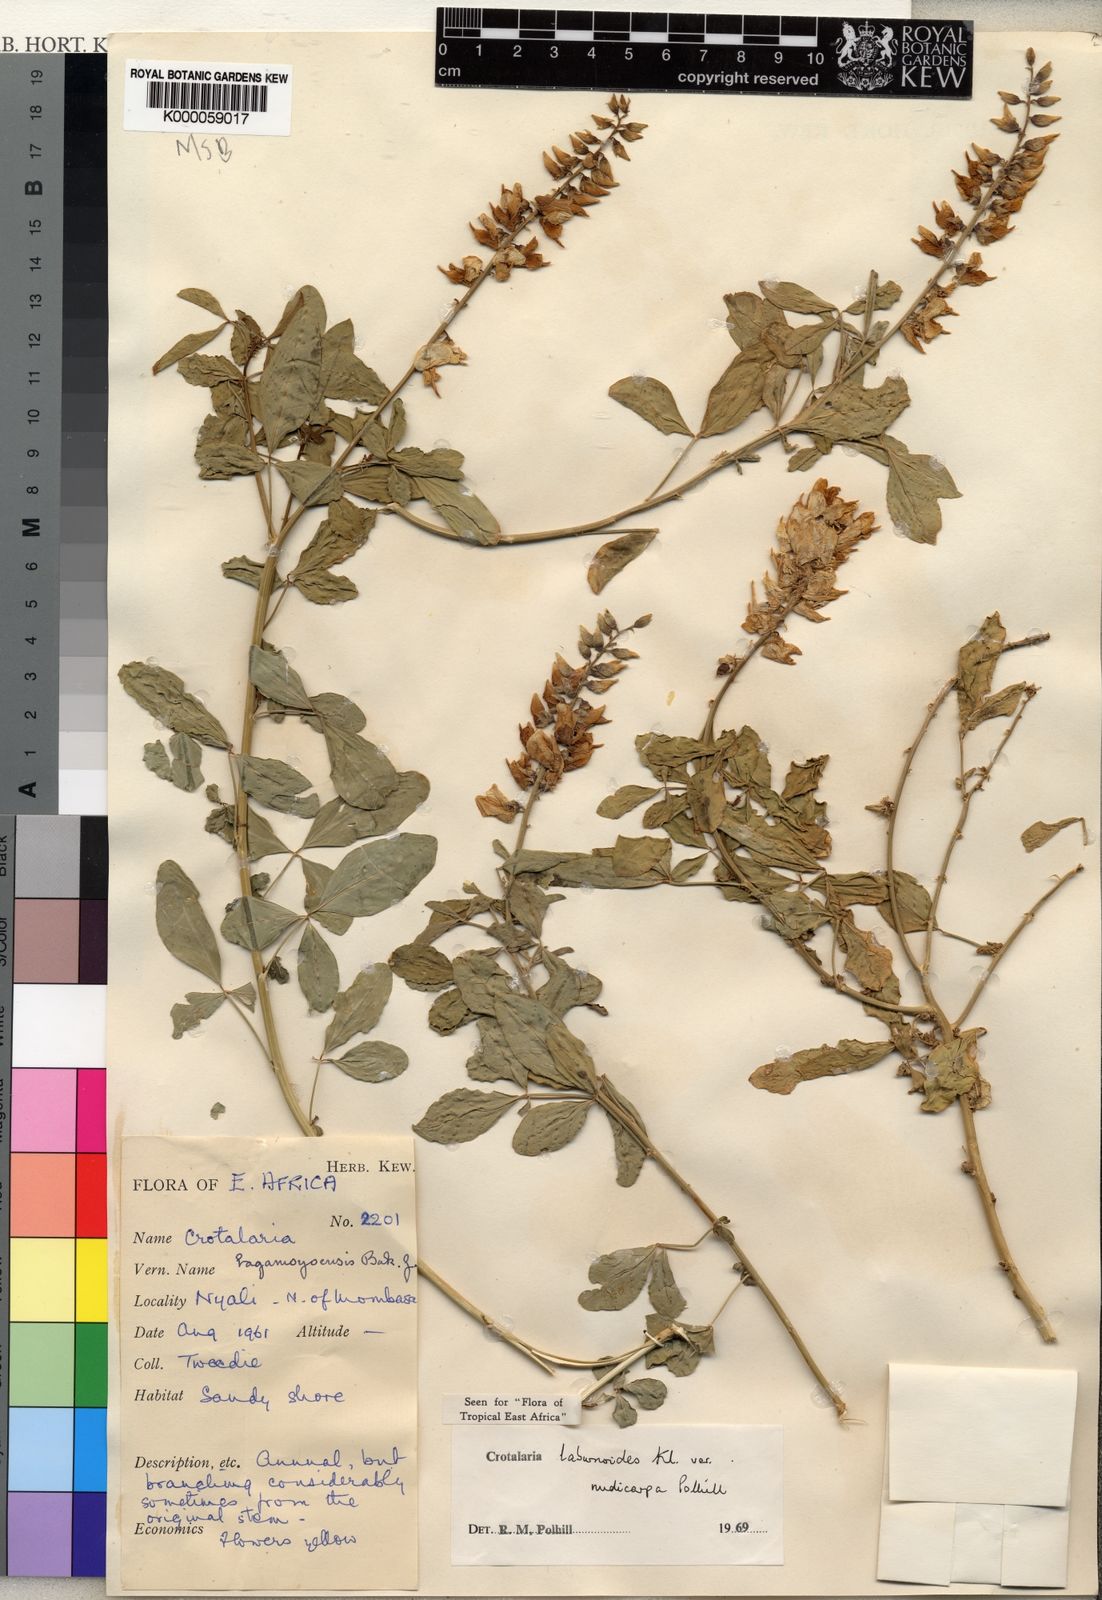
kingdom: Plantae
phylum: Tracheophyta
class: Magnoliopsida
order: Fabales
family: Fabaceae
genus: Crotalaria
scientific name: Crotalaria laburnoides
